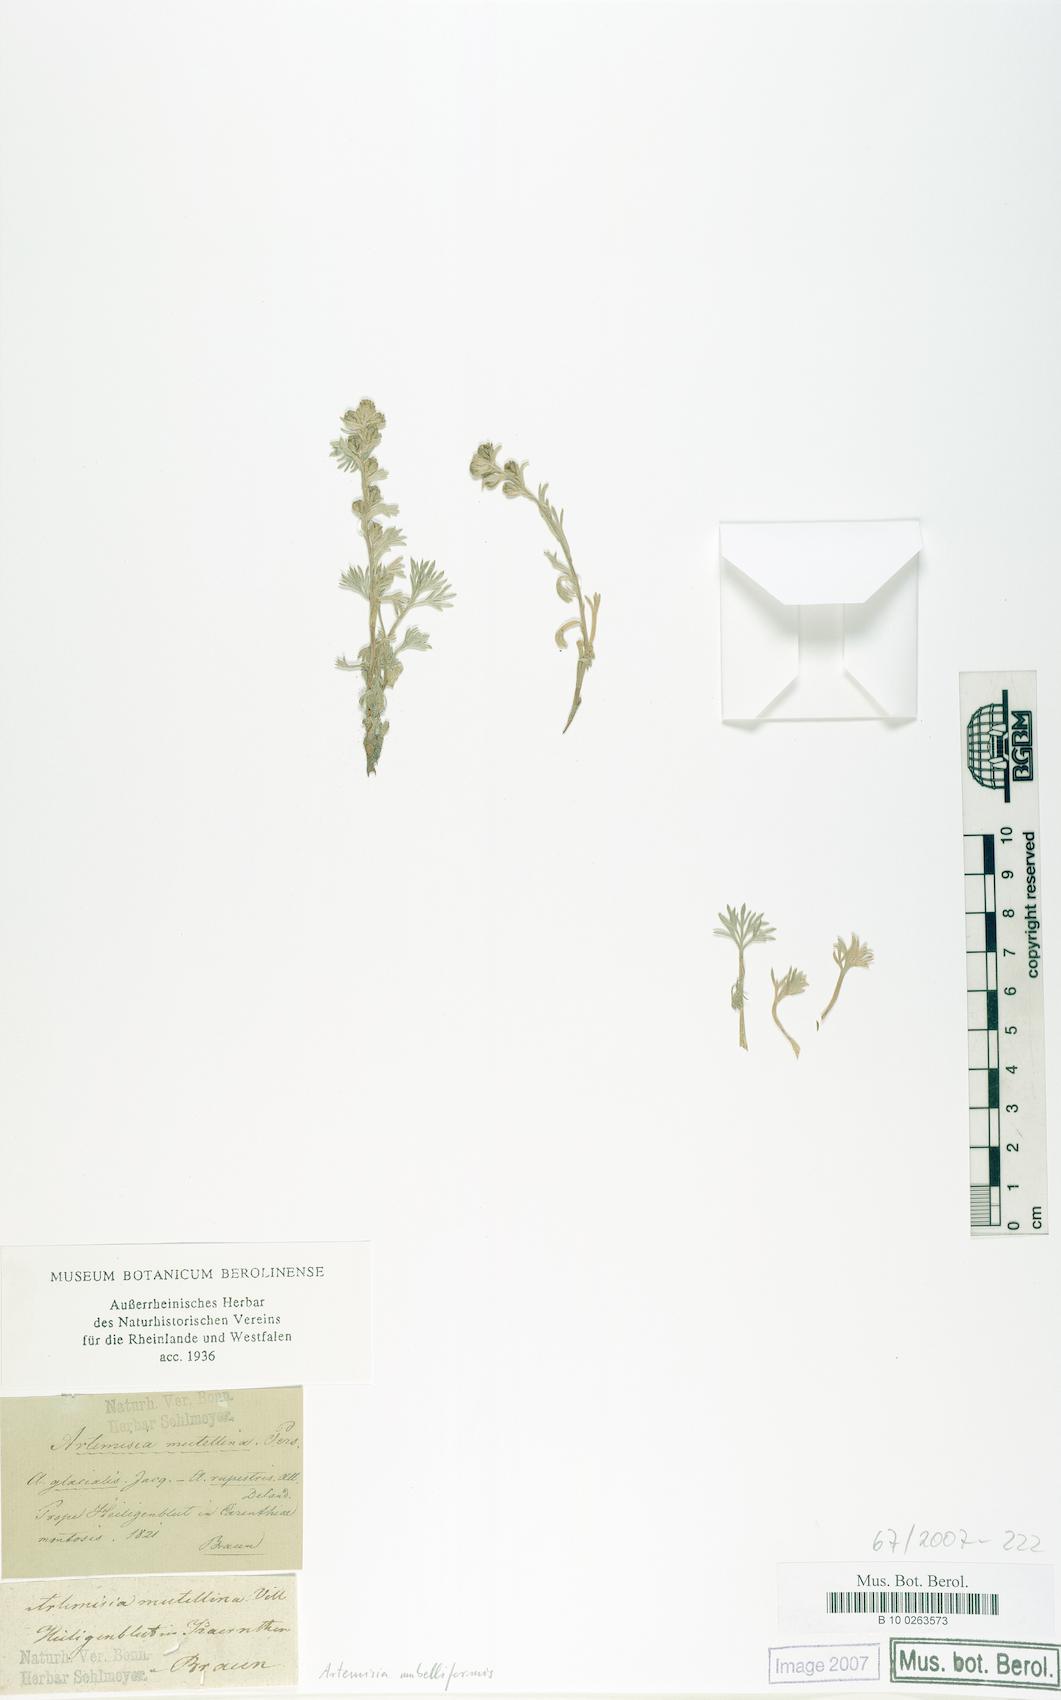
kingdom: Plantae
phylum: Tracheophyta
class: Magnoliopsida
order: Asterales
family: Asteraceae
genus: Artemisia
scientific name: Artemisia umbelliformis
